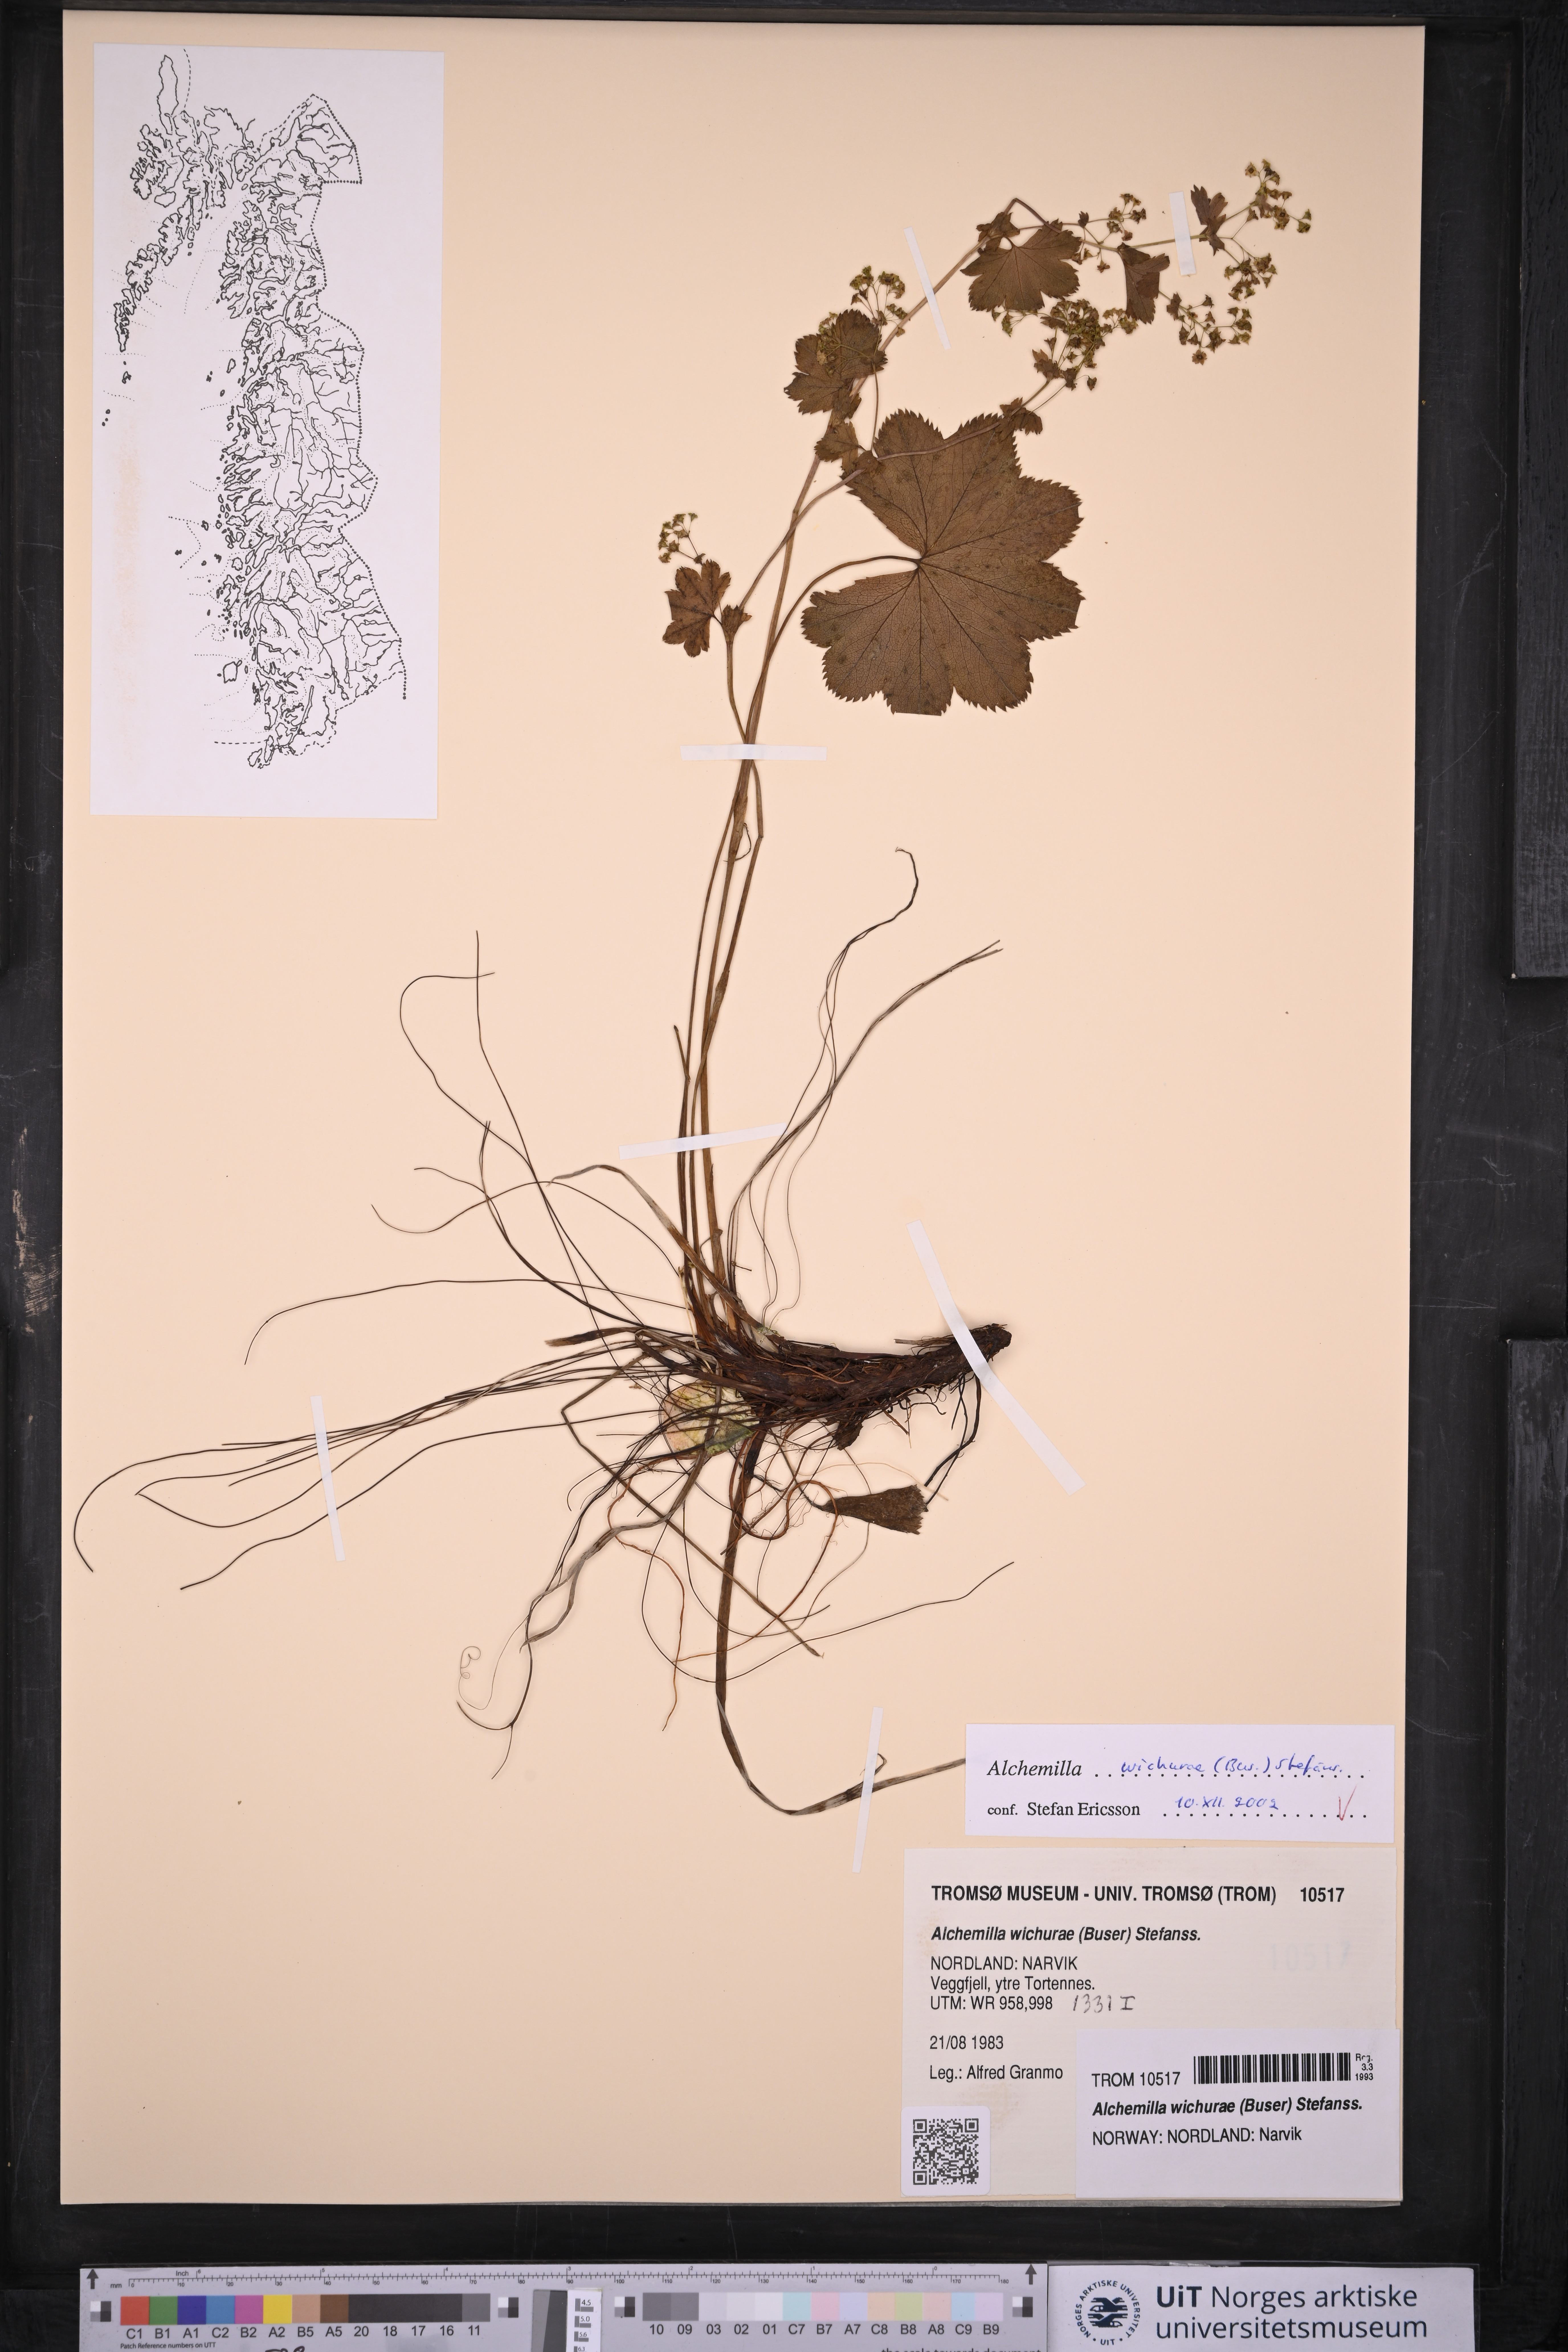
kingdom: Plantae
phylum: Tracheophyta
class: Magnoliopsida
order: Rosales
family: Rosaceae
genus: Alchemilla
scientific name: Alchemilla wichurae
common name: Rock lady's mantle
